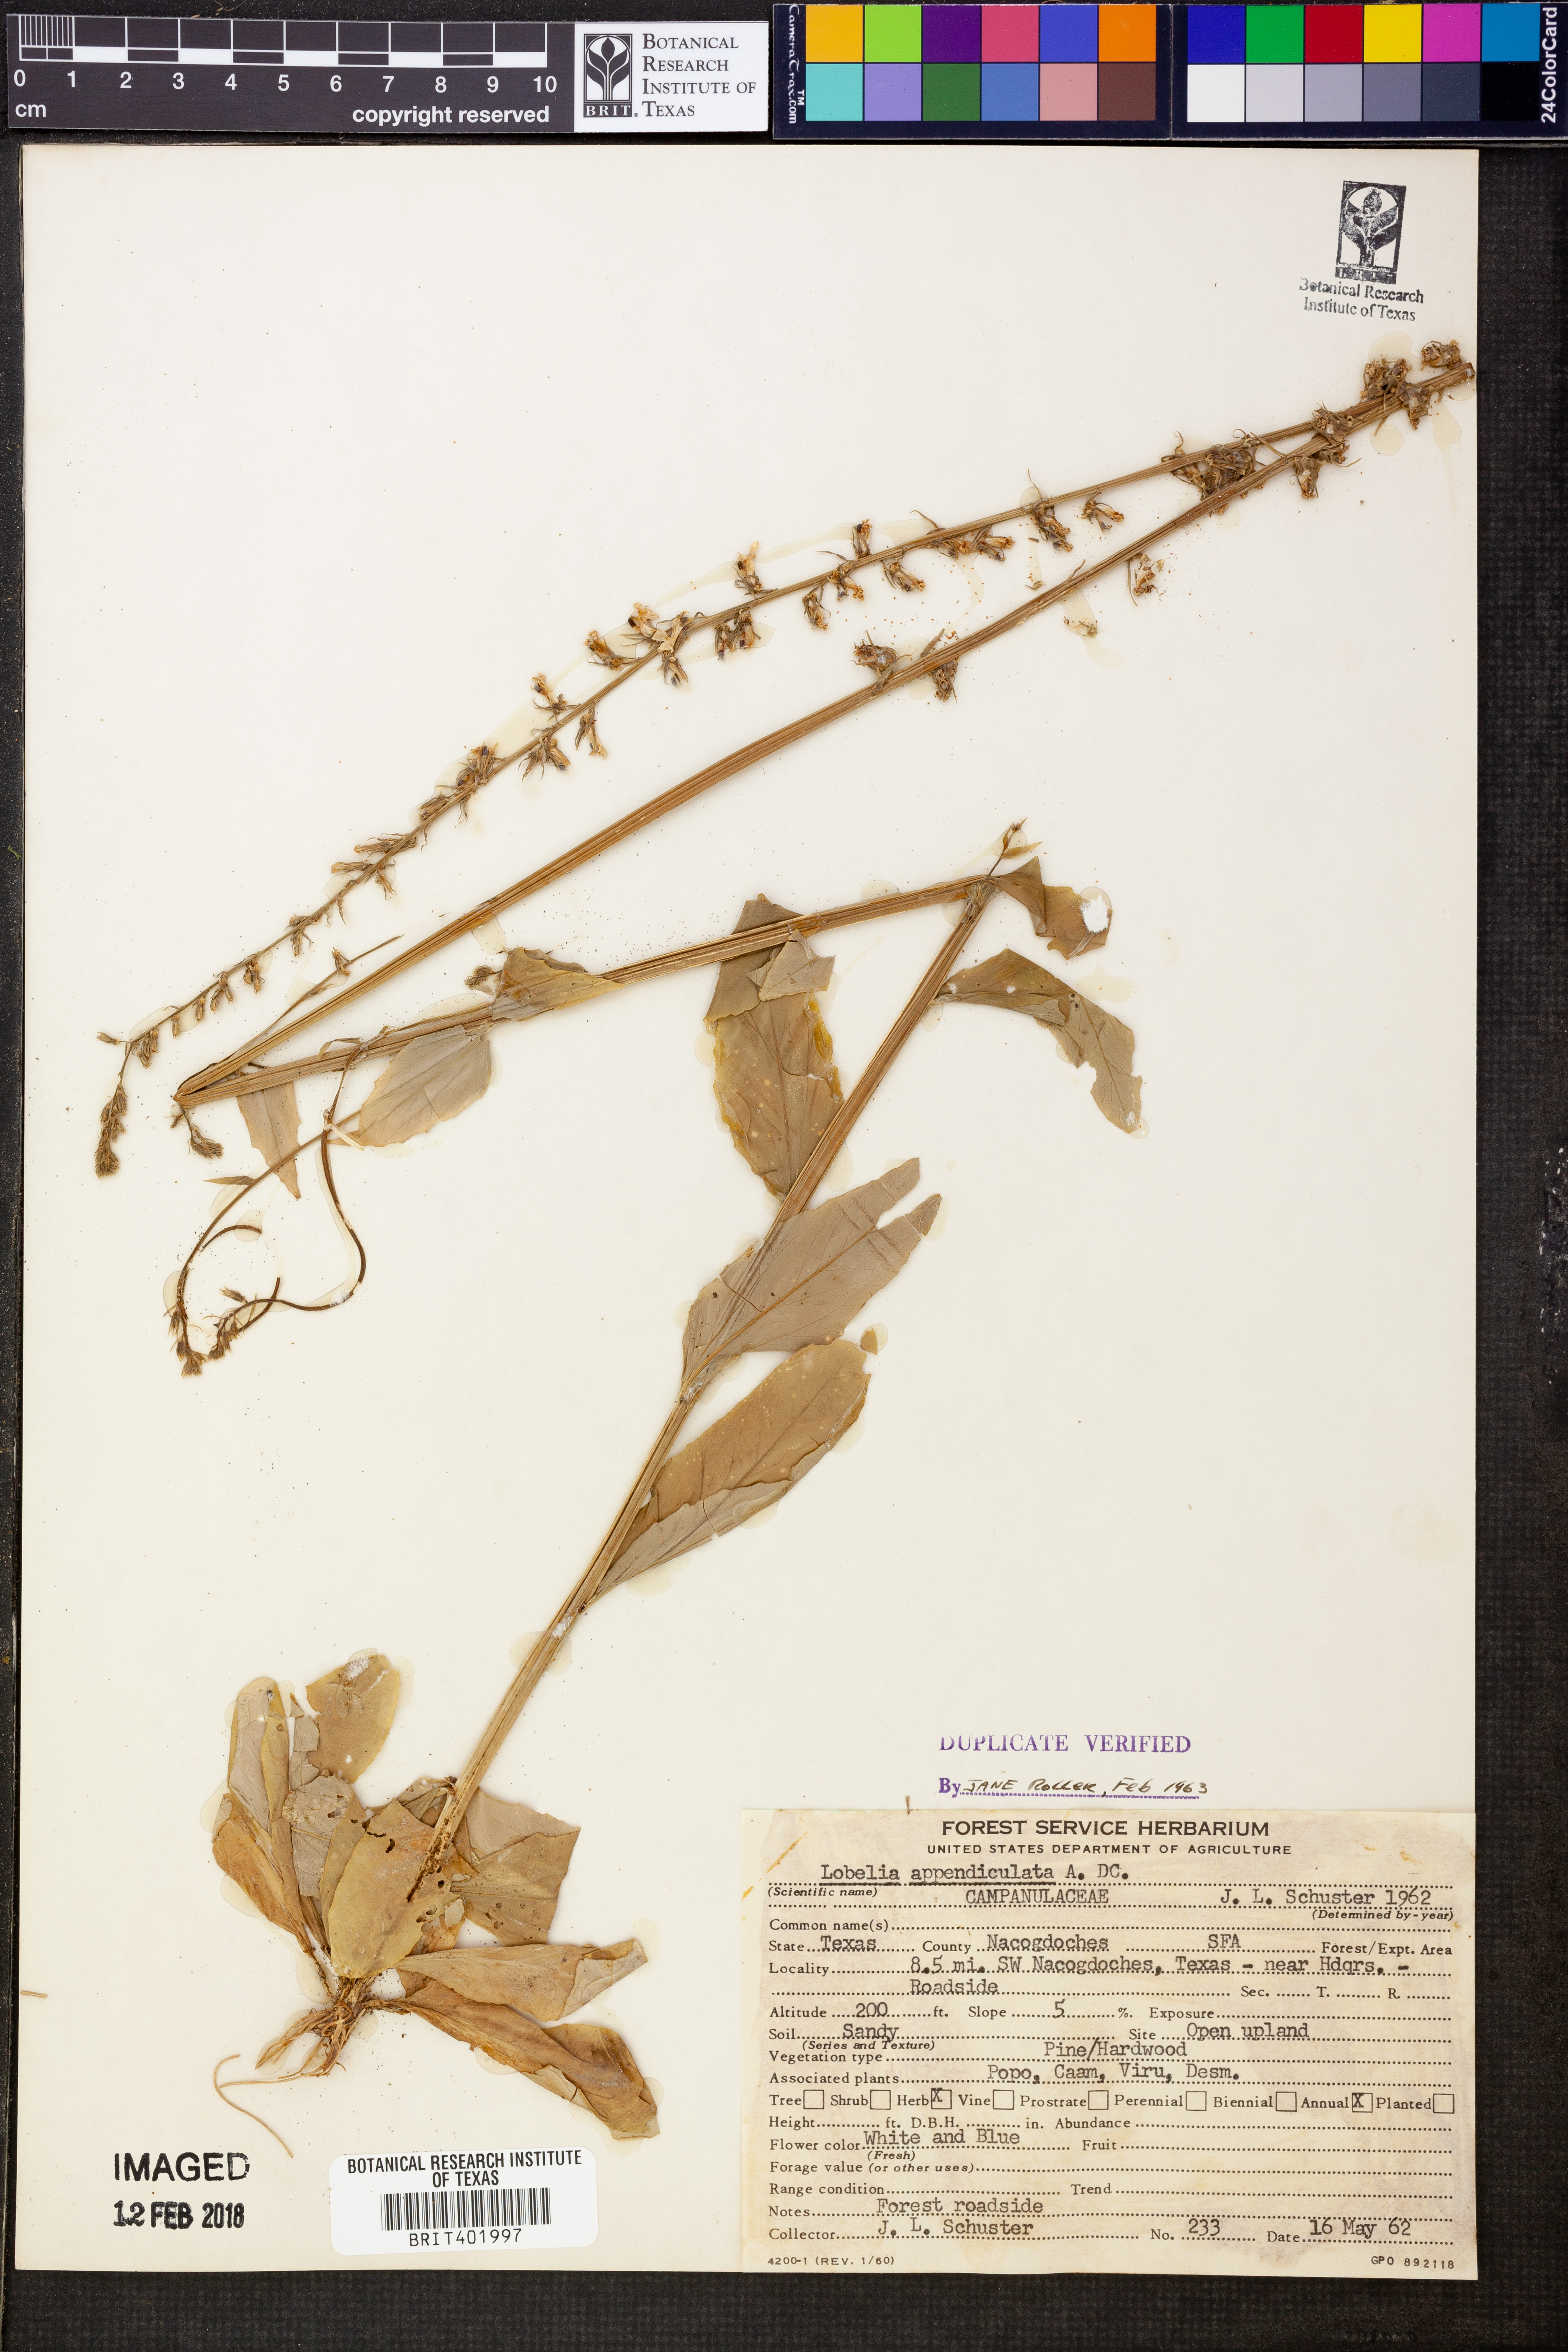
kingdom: Plantae
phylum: Tracheophyta
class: Magnoliopsida
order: Asterales
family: Campanulaceae
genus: Lobelia
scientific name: Lobelia appendiculata
